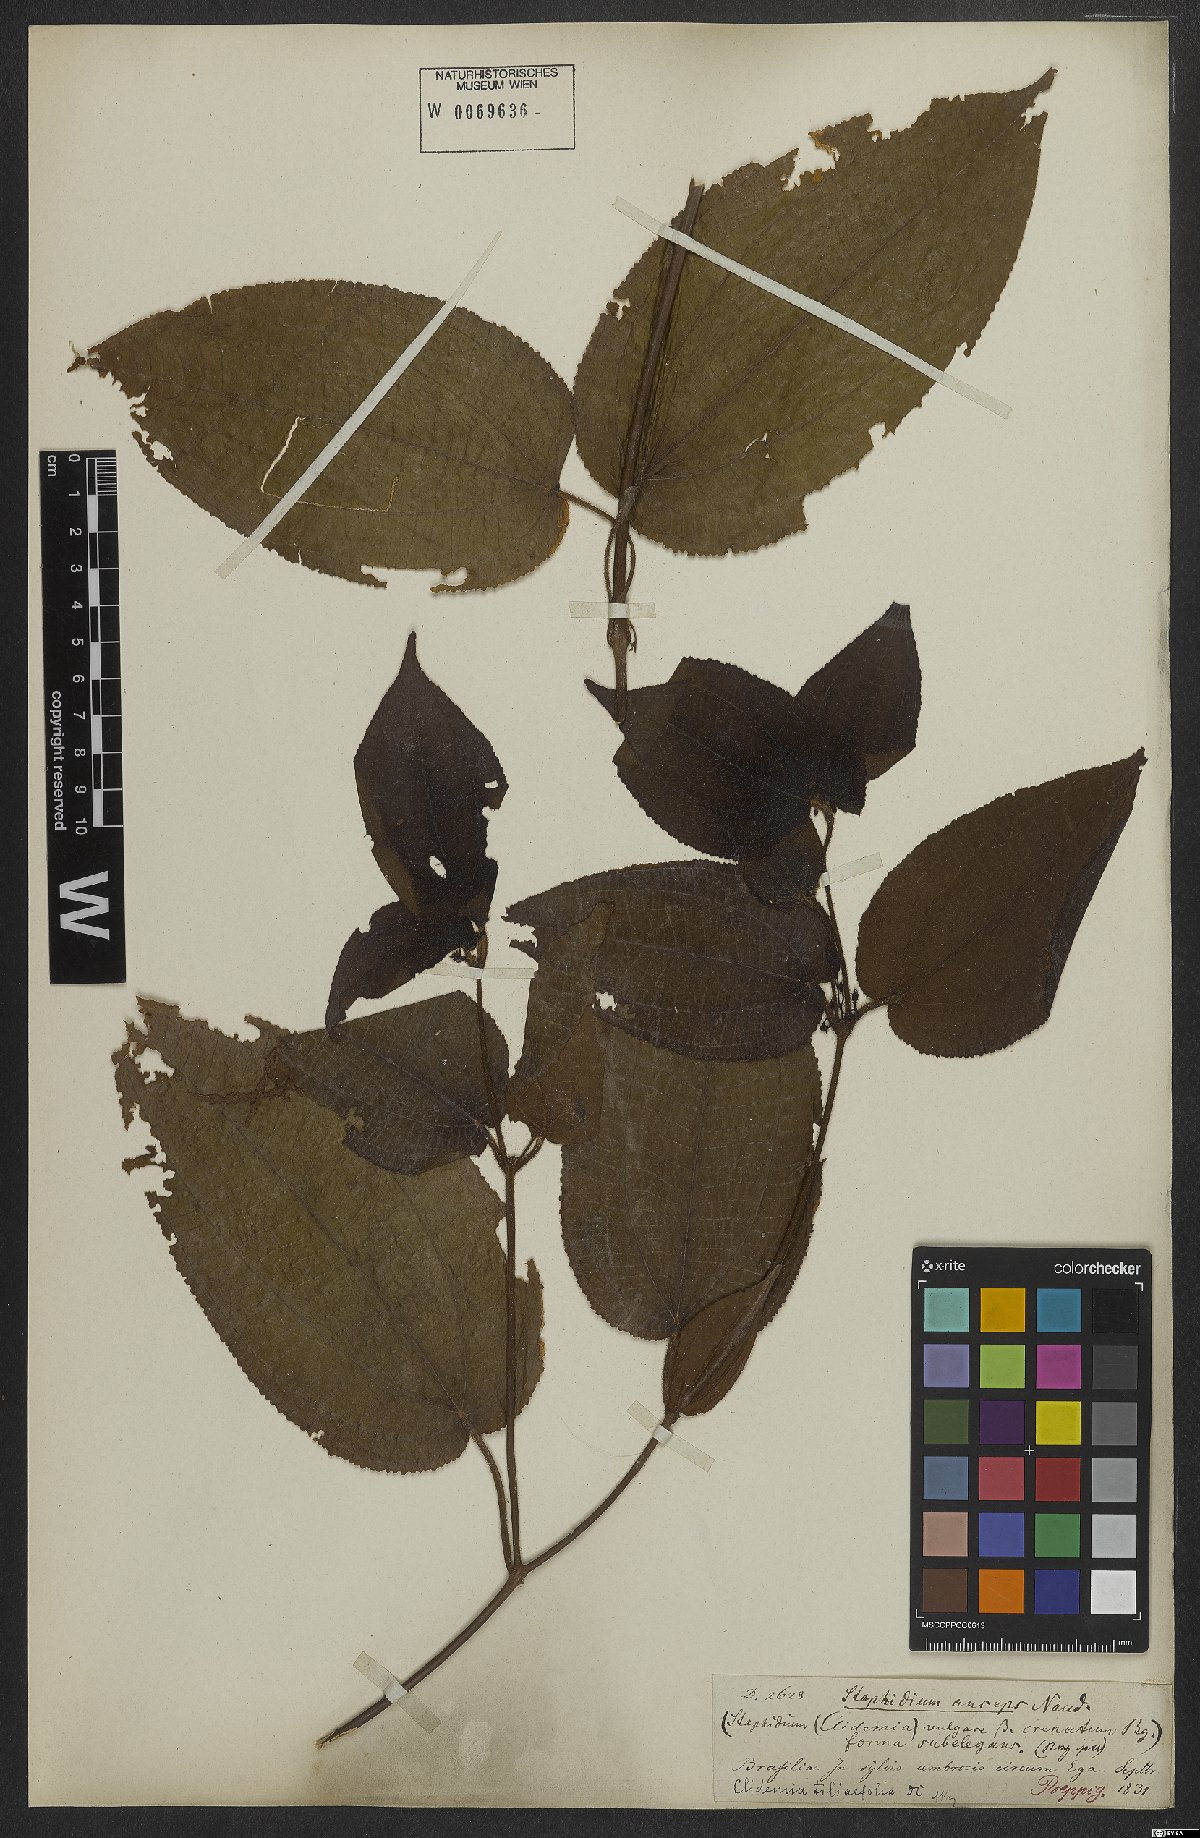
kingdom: Plantae
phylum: Tracheophyta
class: Magnoliopsida
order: Myrtales
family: Melastomataceae
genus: Miconia
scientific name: Miconia crenata
